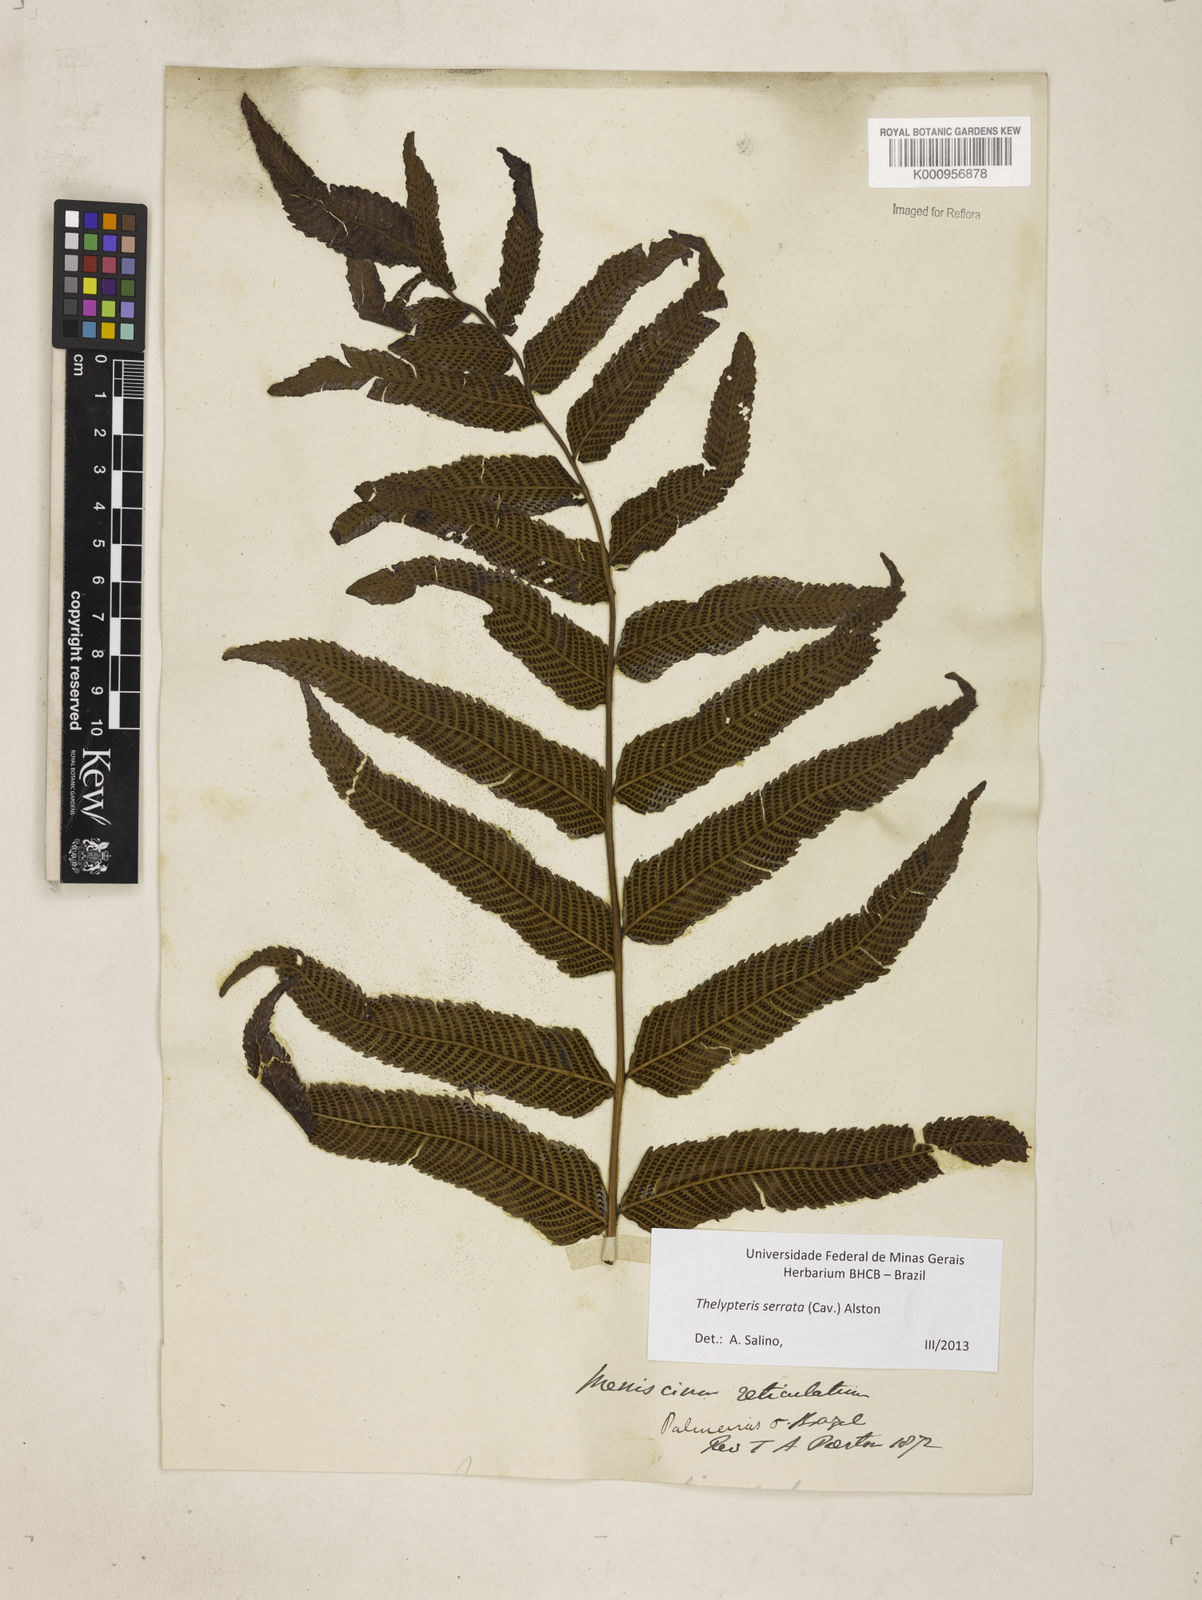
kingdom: Plantae
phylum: Tracheophyta
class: Polypodiopsida
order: Polypodiales
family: Thelypteridaceae
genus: Meniscium
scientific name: Meniscium serratum
